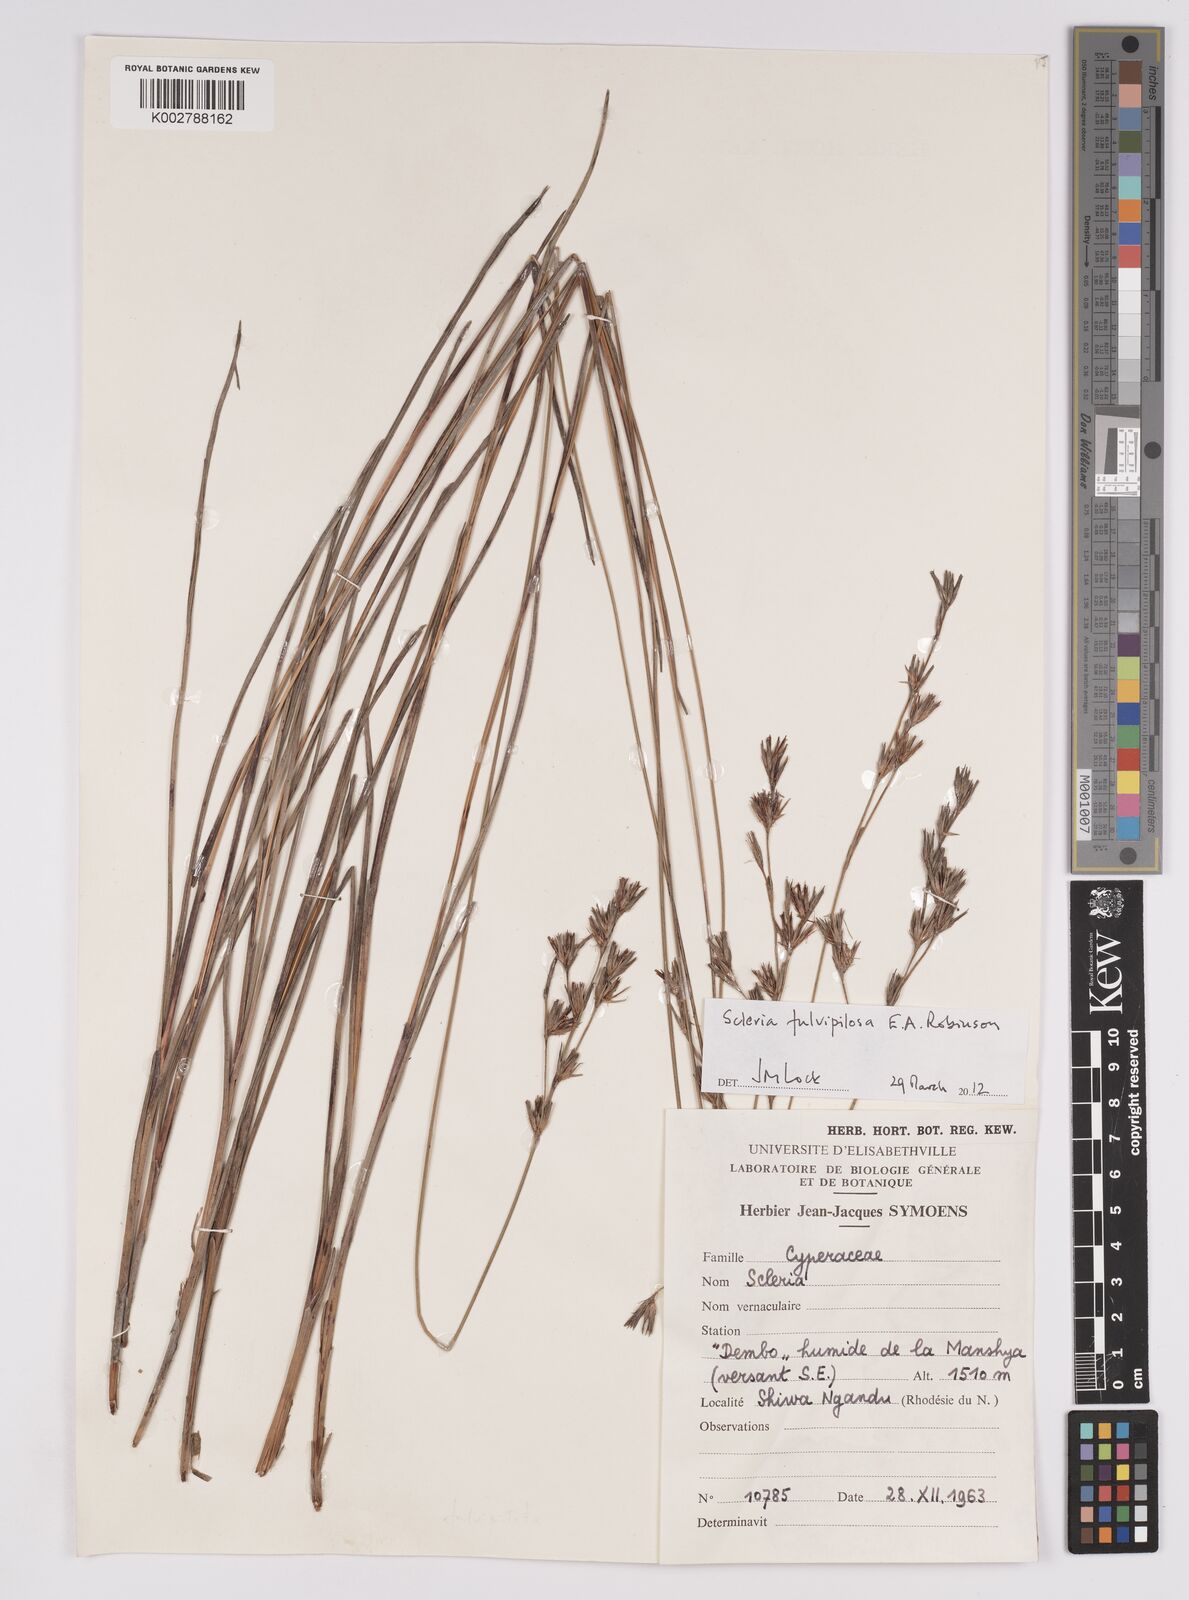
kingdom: Plantae
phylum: Tracheophyta
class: Liliopsida
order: Poales
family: Cyperaceae
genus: Scleria
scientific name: Scleria fulvipilosa
